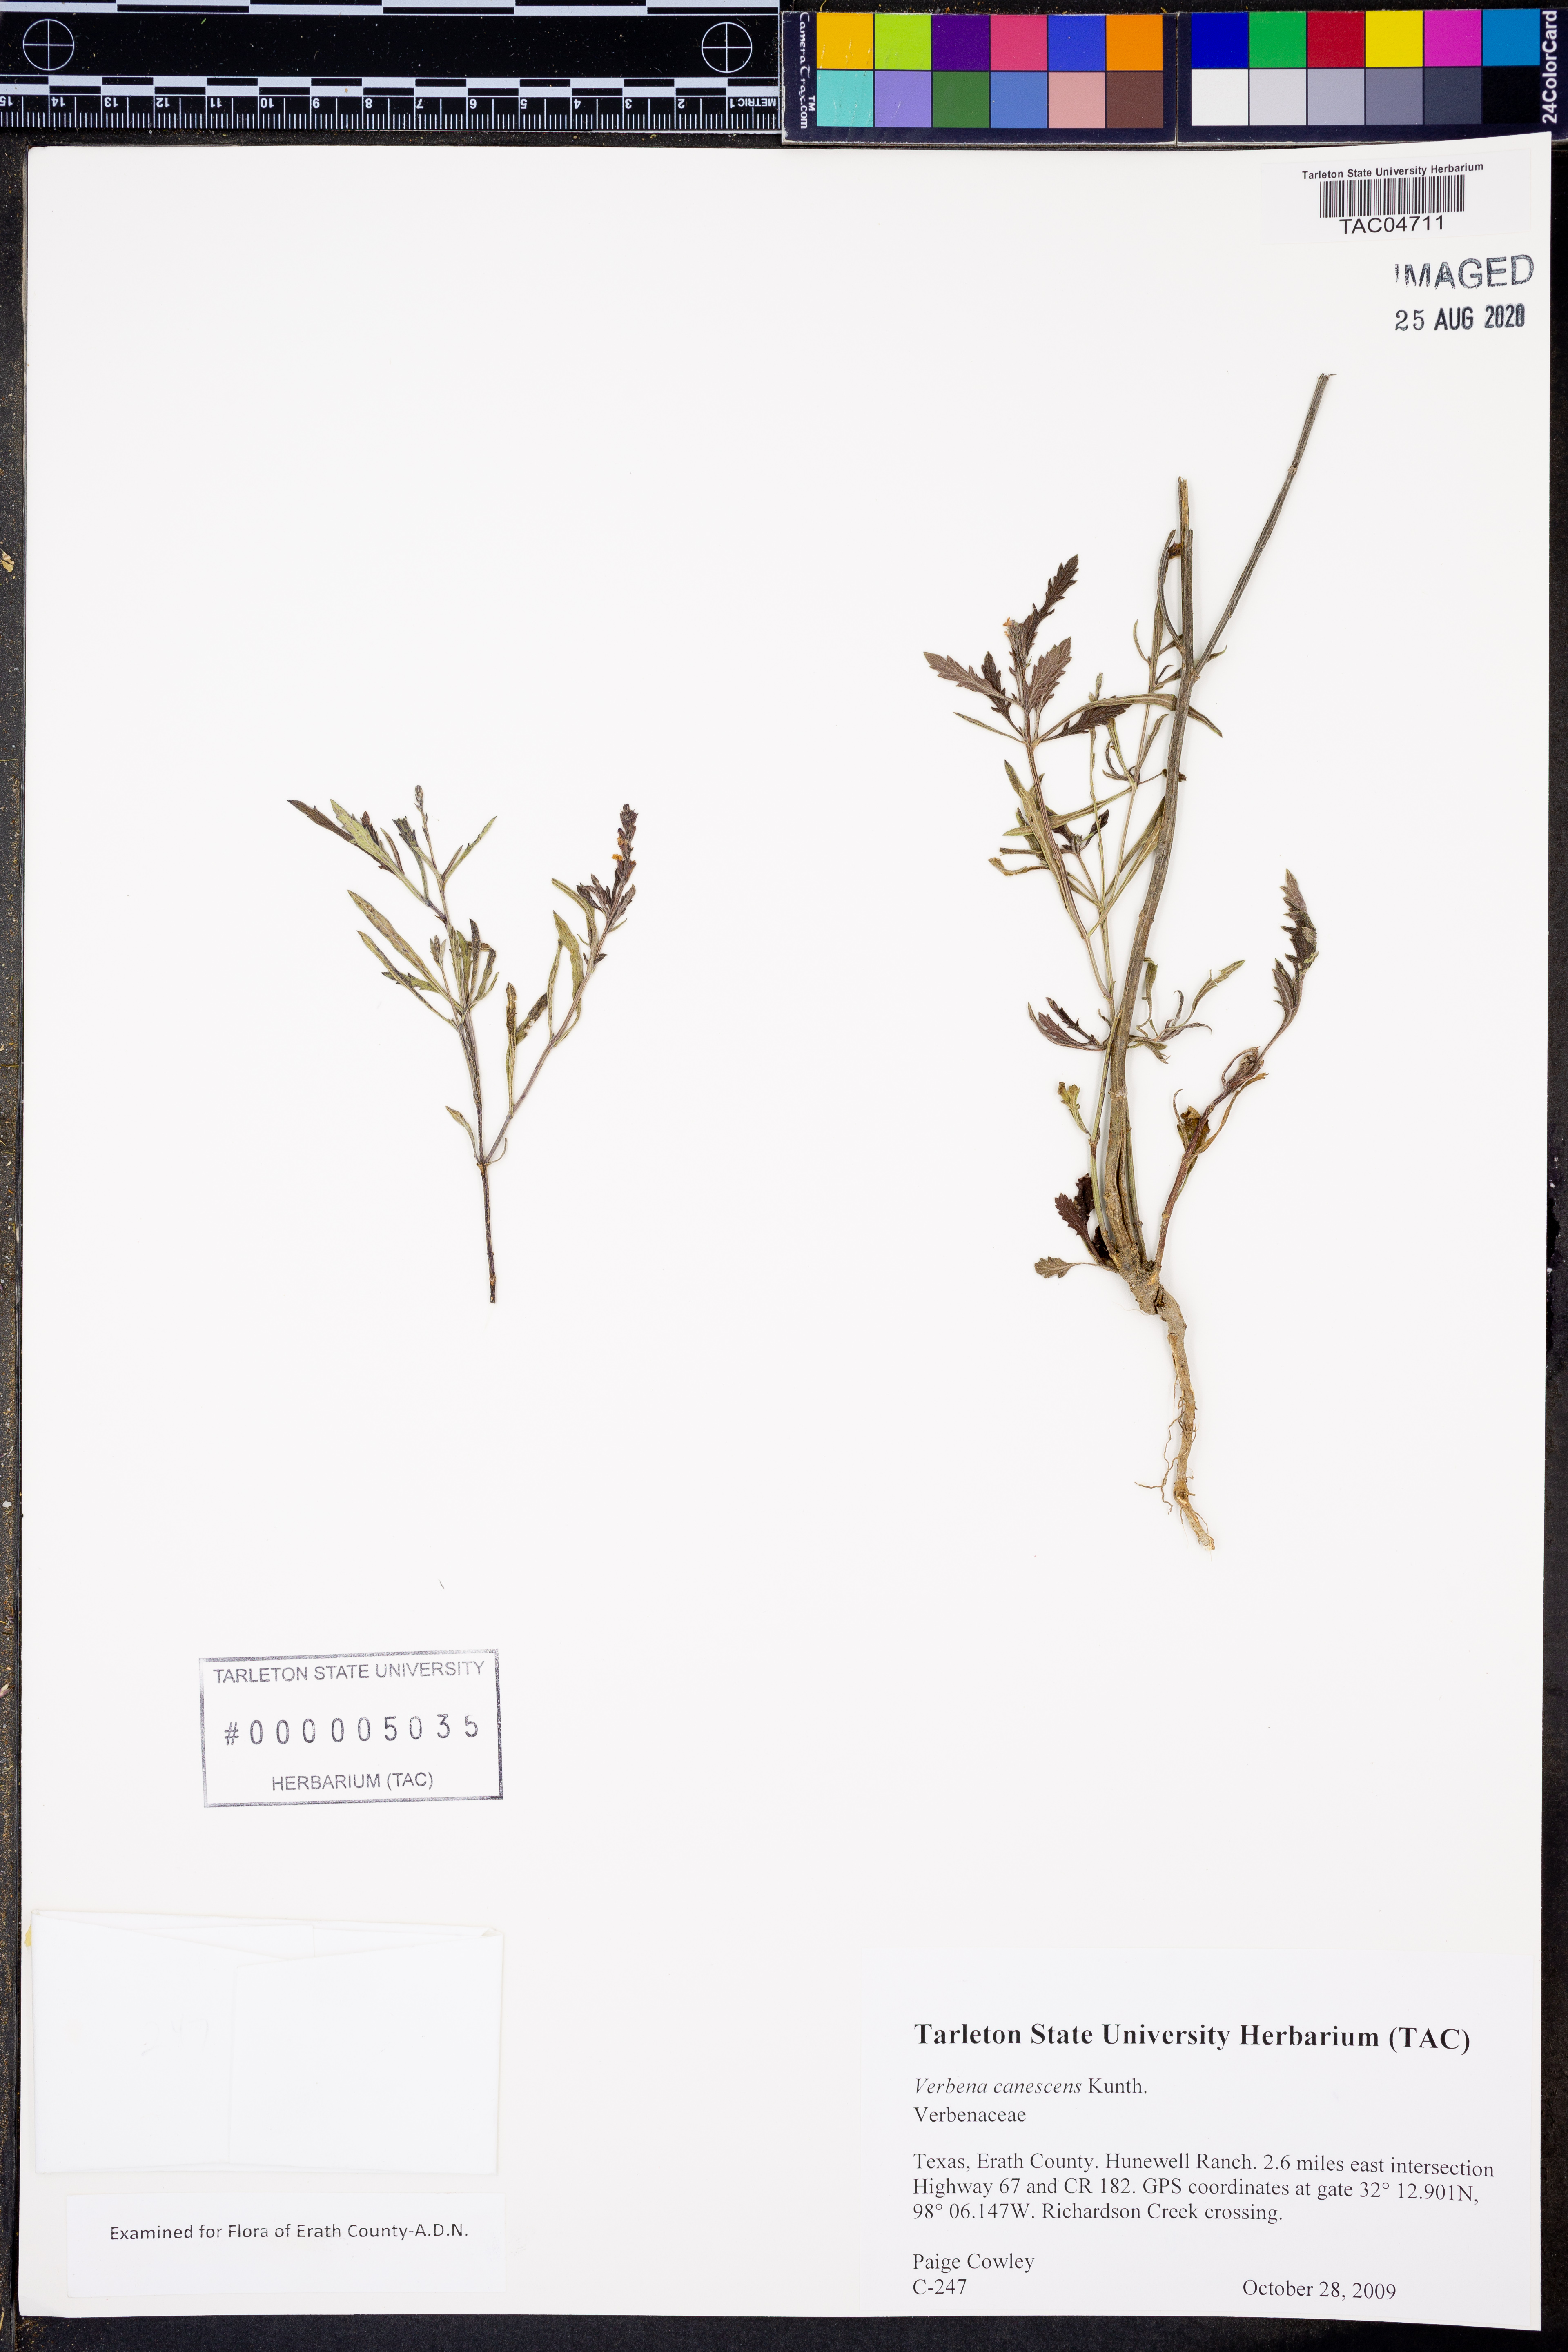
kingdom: Plantae
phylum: Tracheophyta
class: Magnoliopsida
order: Lamiales
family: Verbenaceae
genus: Verbena
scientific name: Verbena canescens
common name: Gray vervain
